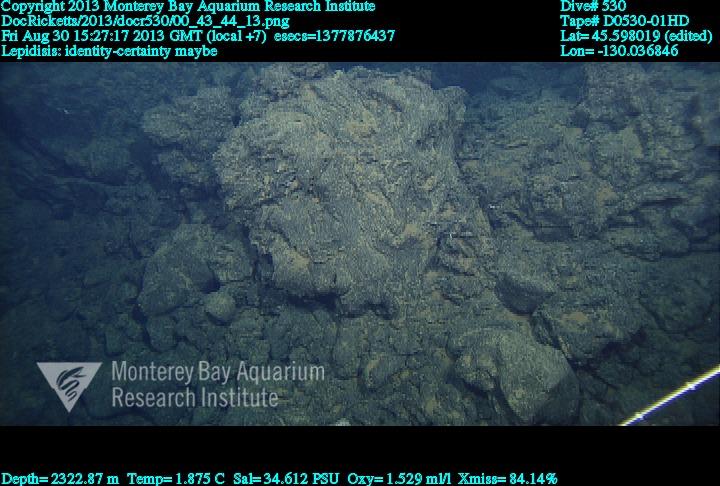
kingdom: Animalia
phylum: Cnidaria
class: Anthozoa
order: Scleralcyonacea
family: Keratoisididae
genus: Lepidisis
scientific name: Lepidisis
